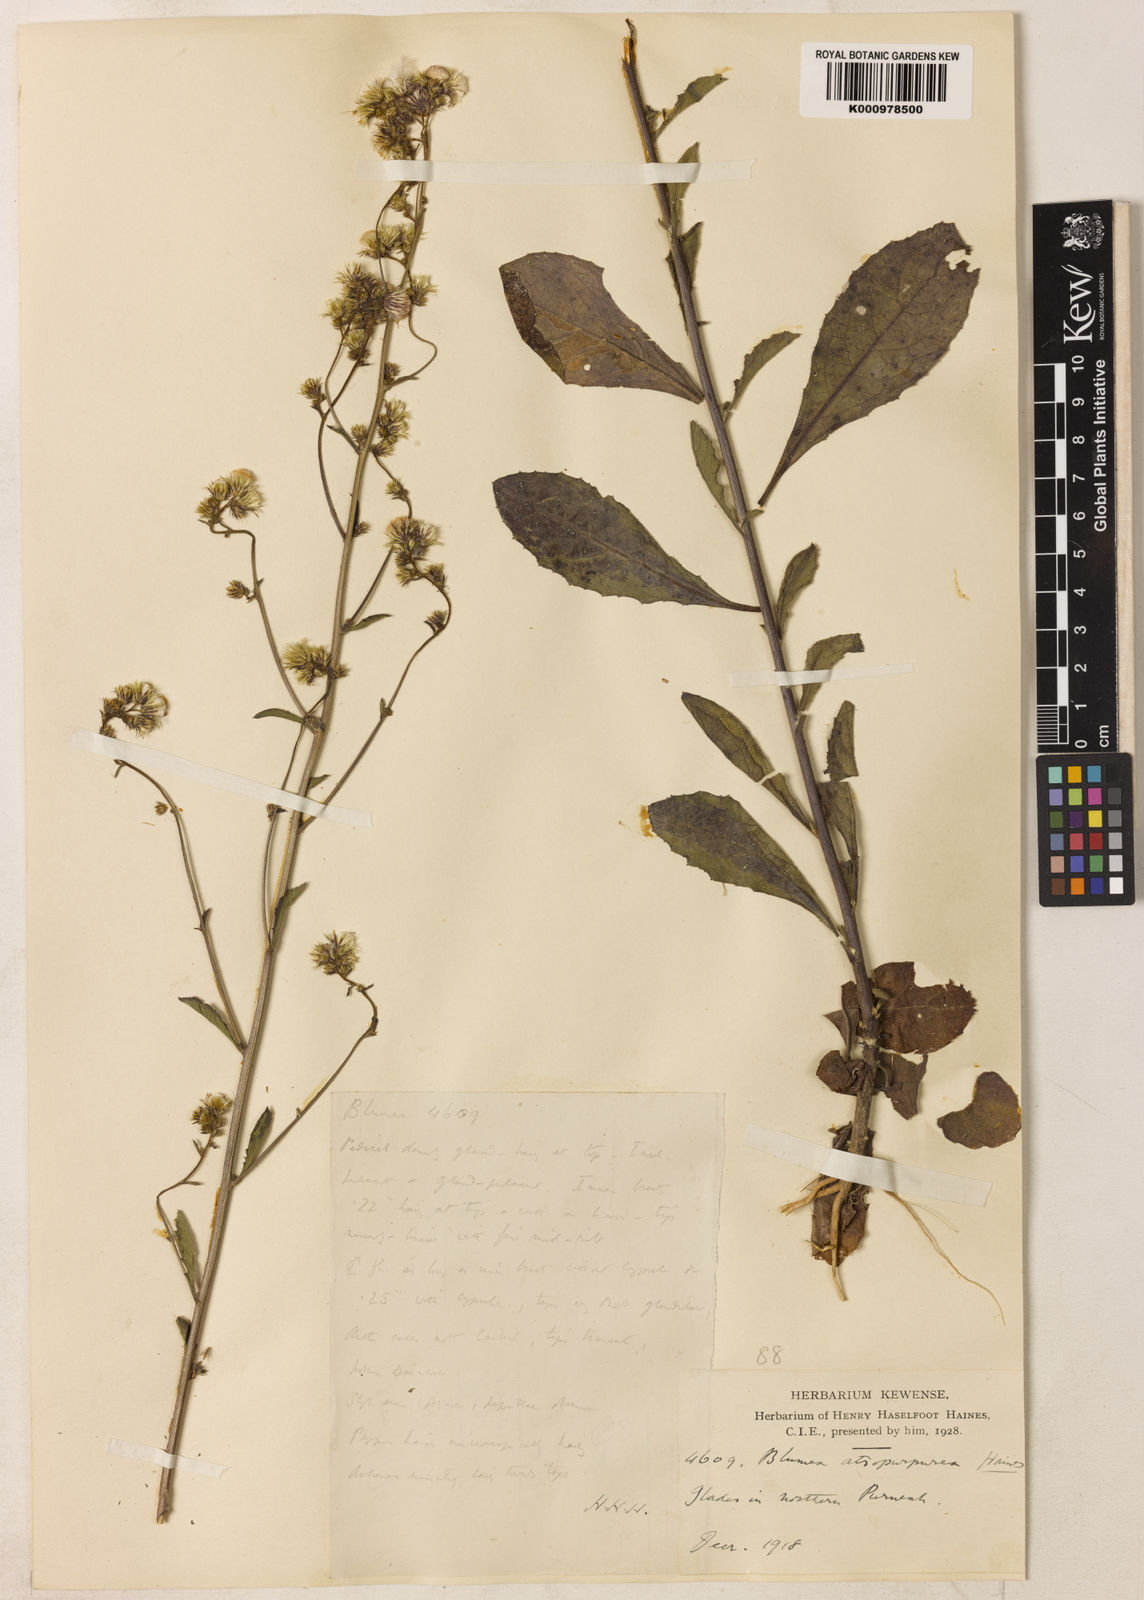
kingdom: Plantae
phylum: Tracheophyta
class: Magnoliopsida
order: Asterales
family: Asteraceae
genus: Blumea
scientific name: Blumea atropurpurea
